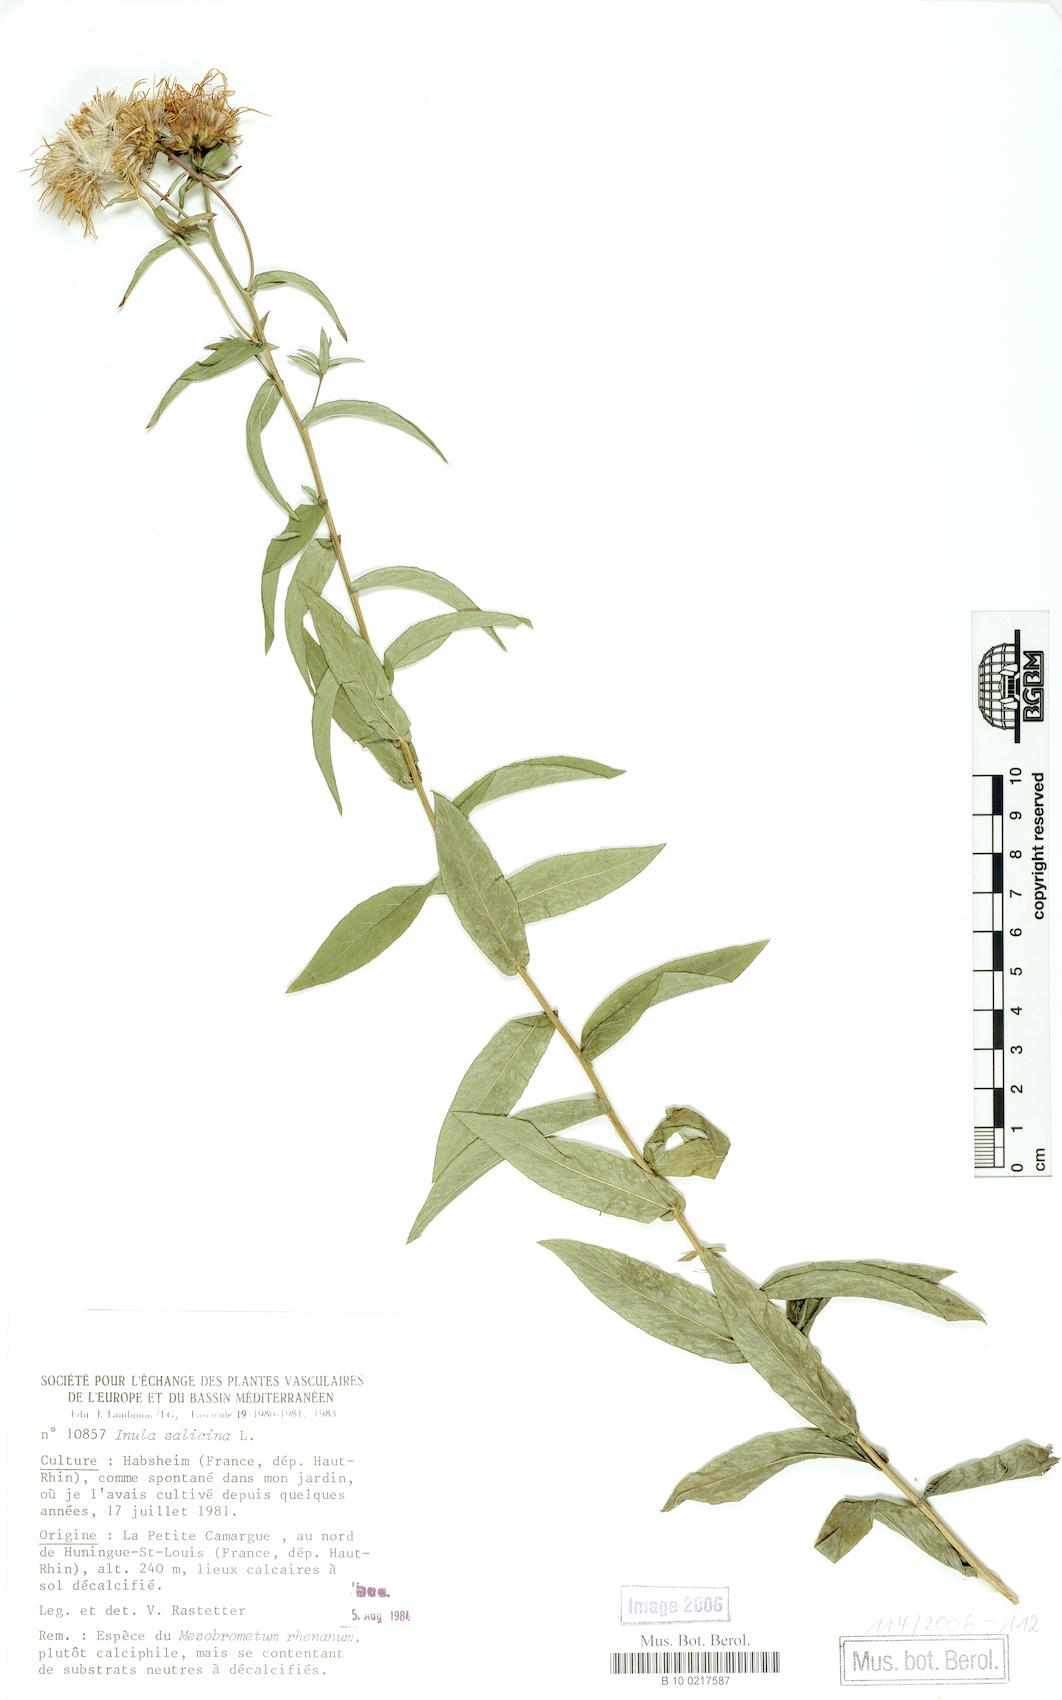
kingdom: Plantae
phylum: Tracheophyta
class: Magnoliopsida
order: Asterales
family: Asteraceae
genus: Pentanema
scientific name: Pentanema salicinum
